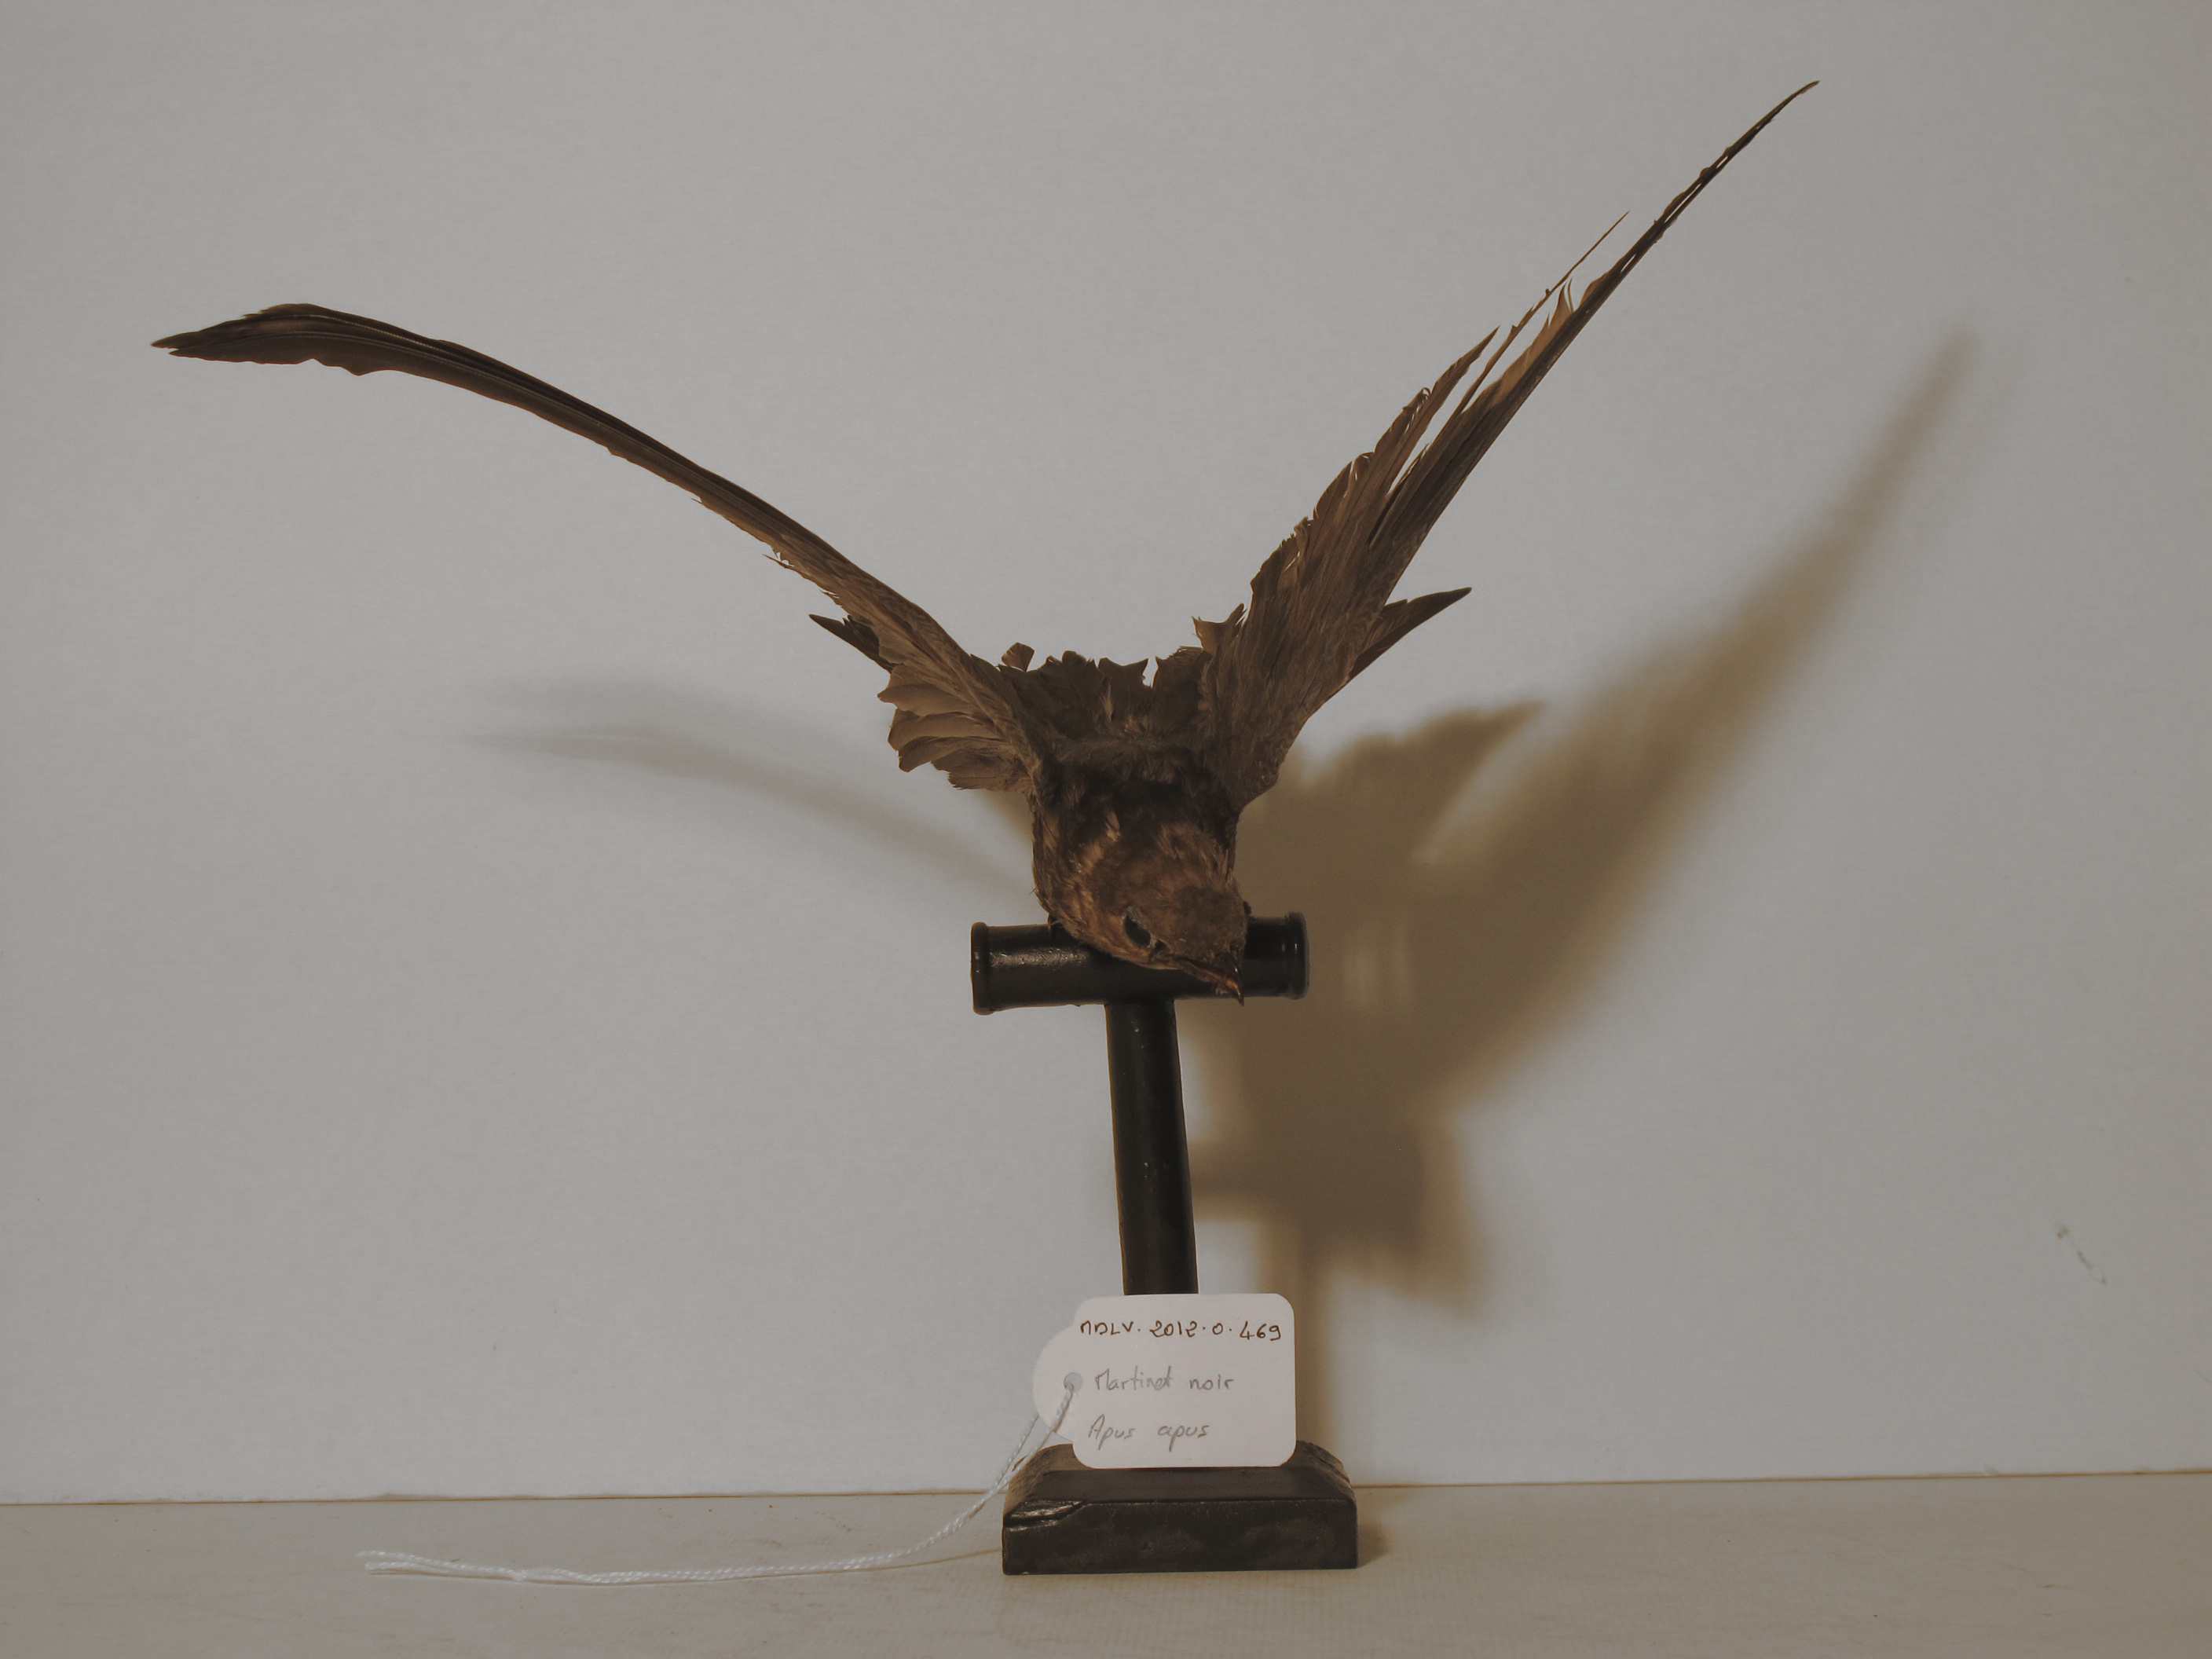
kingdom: Animalia
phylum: Chordata
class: Aves
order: Apodiformes
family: Apodidae
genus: Apus
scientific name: Apus apus
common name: Common Swift
